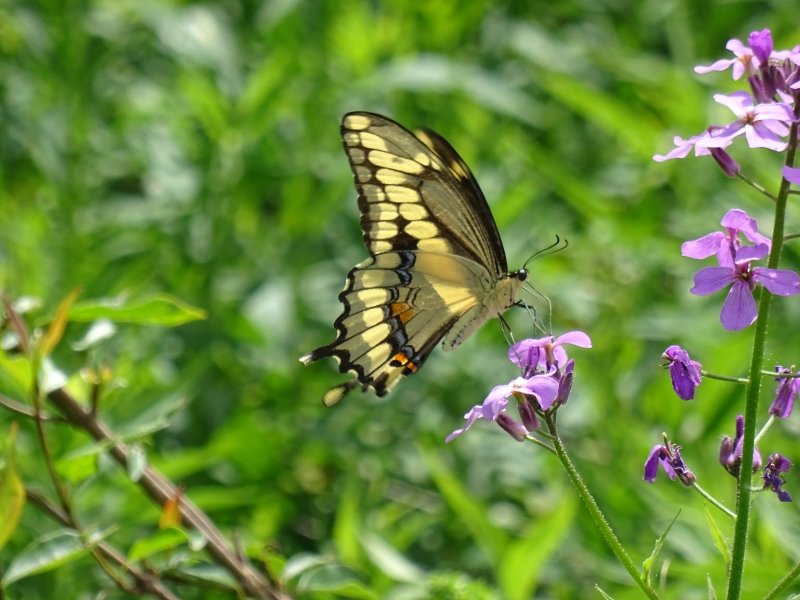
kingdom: Animalia
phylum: Arthropoda
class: Insecta
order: Lepidoptera
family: Papilionidae
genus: Papilio
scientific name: Papilio cresphontes
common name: Eastern Giant Swallowtail
